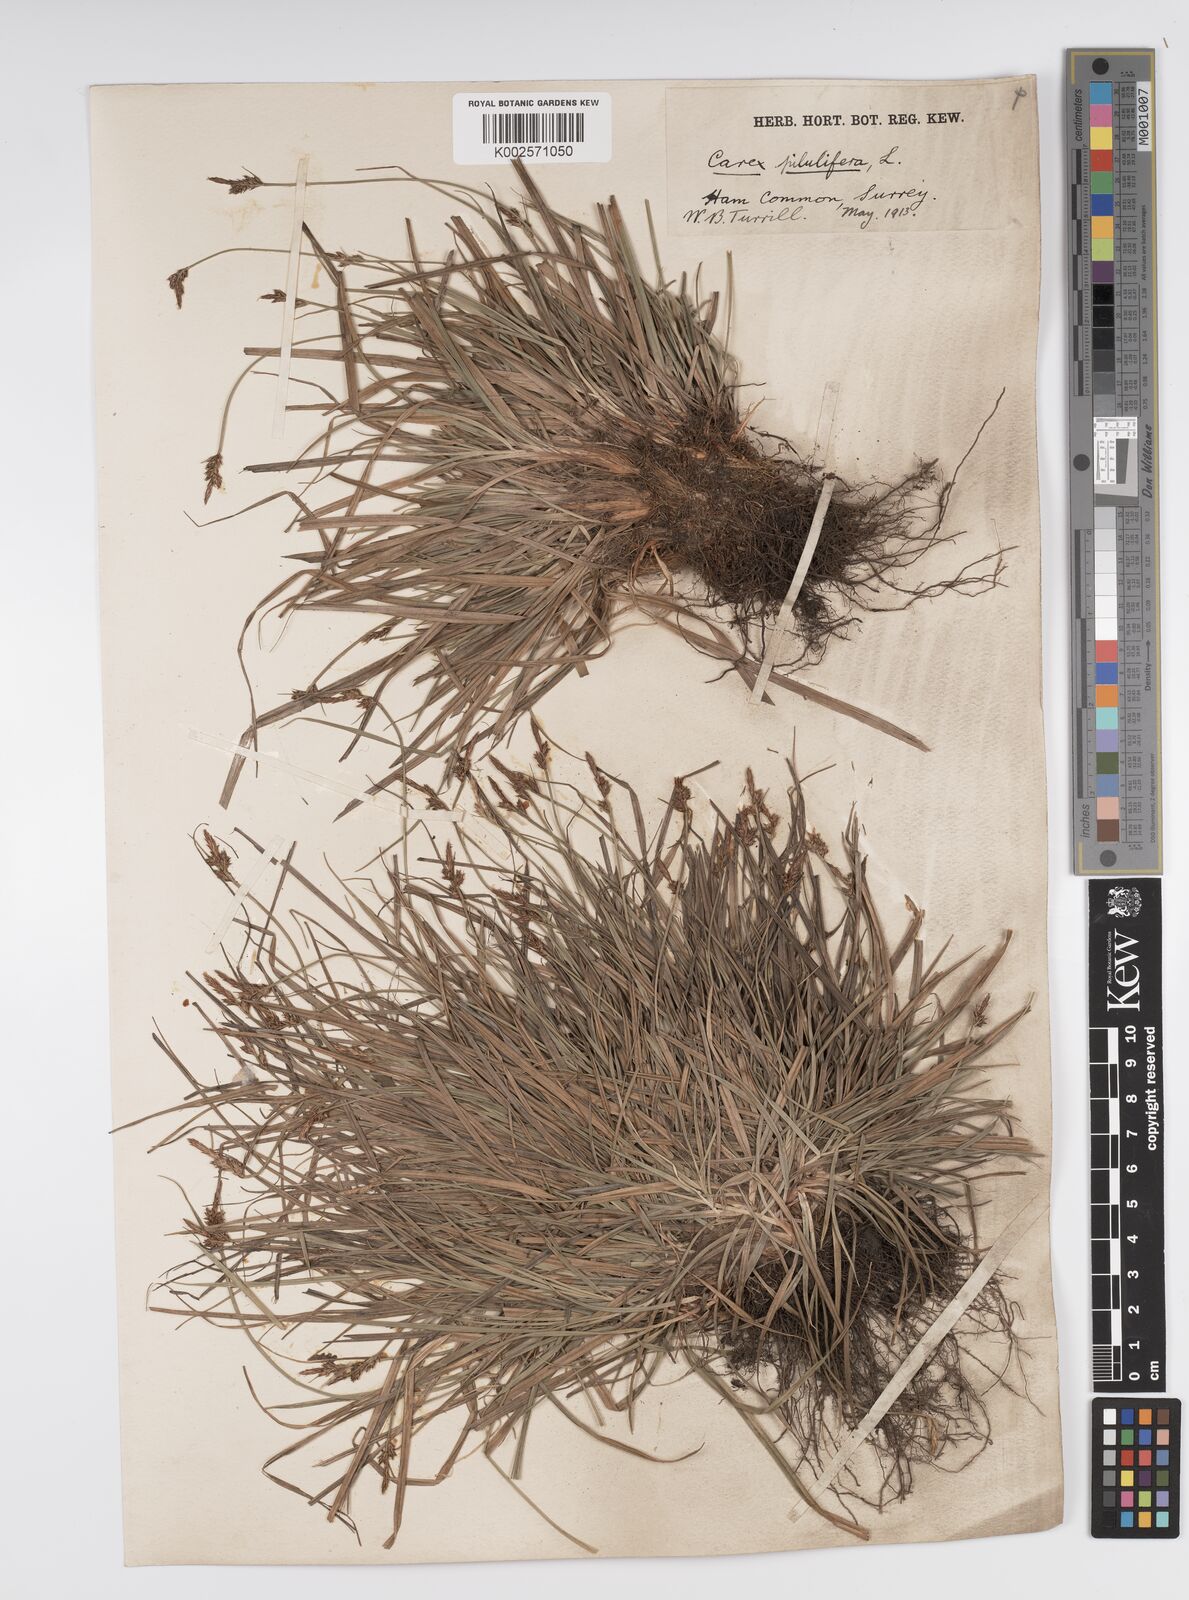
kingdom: Plantae
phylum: Tracheophyta
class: Liliopsida
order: Poales
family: Cyperaceae
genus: Carex
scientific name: Carex pilulifera
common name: Pill sedge
